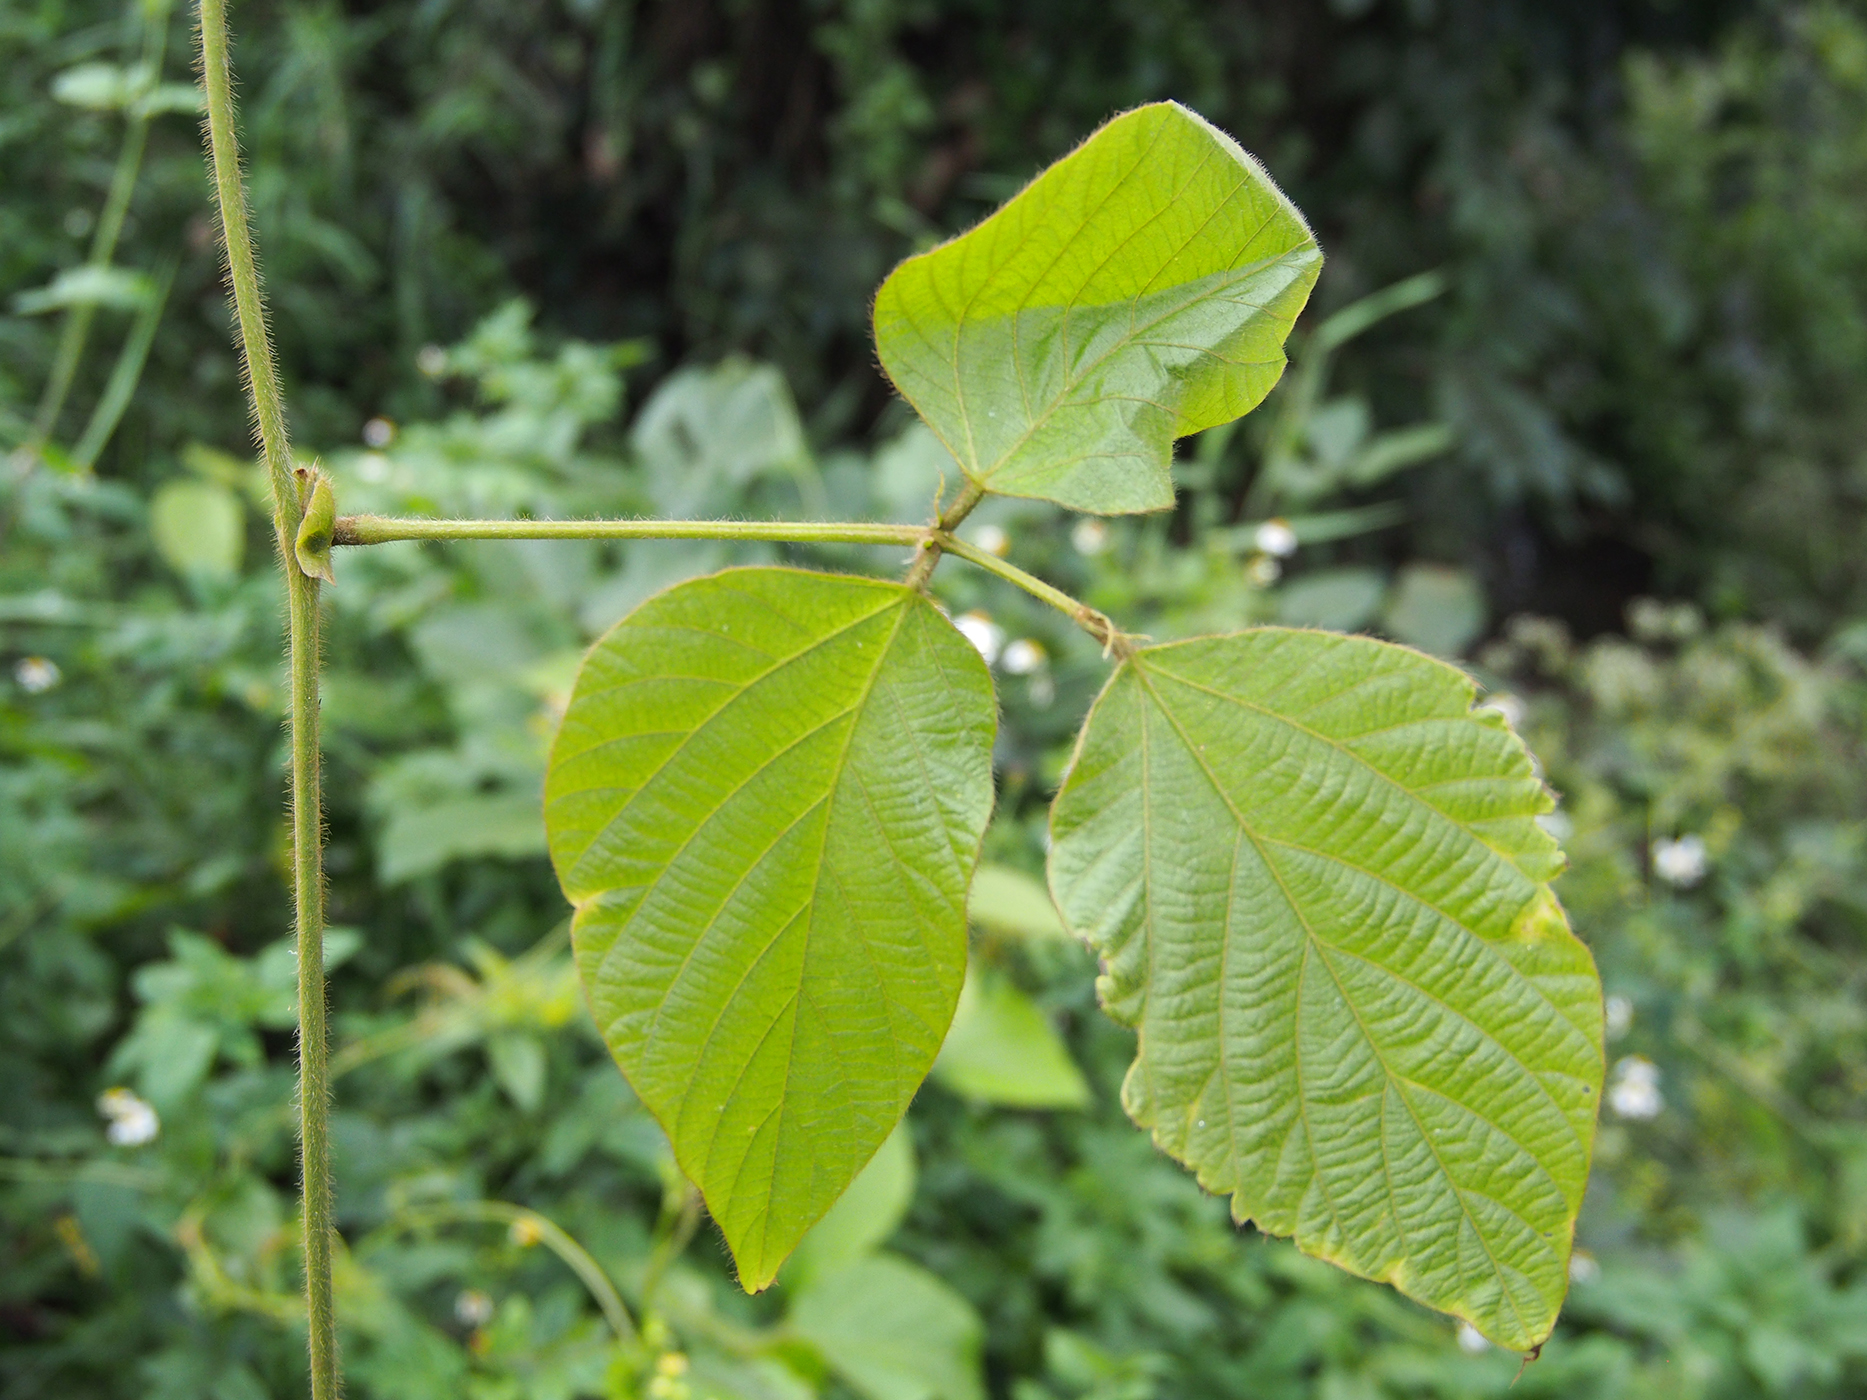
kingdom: Plantae
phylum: Tracheophyta
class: Magnoliopsida
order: Fabales
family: Fabaceae
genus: Pueraria
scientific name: Pueraria montana
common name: Kudzu
